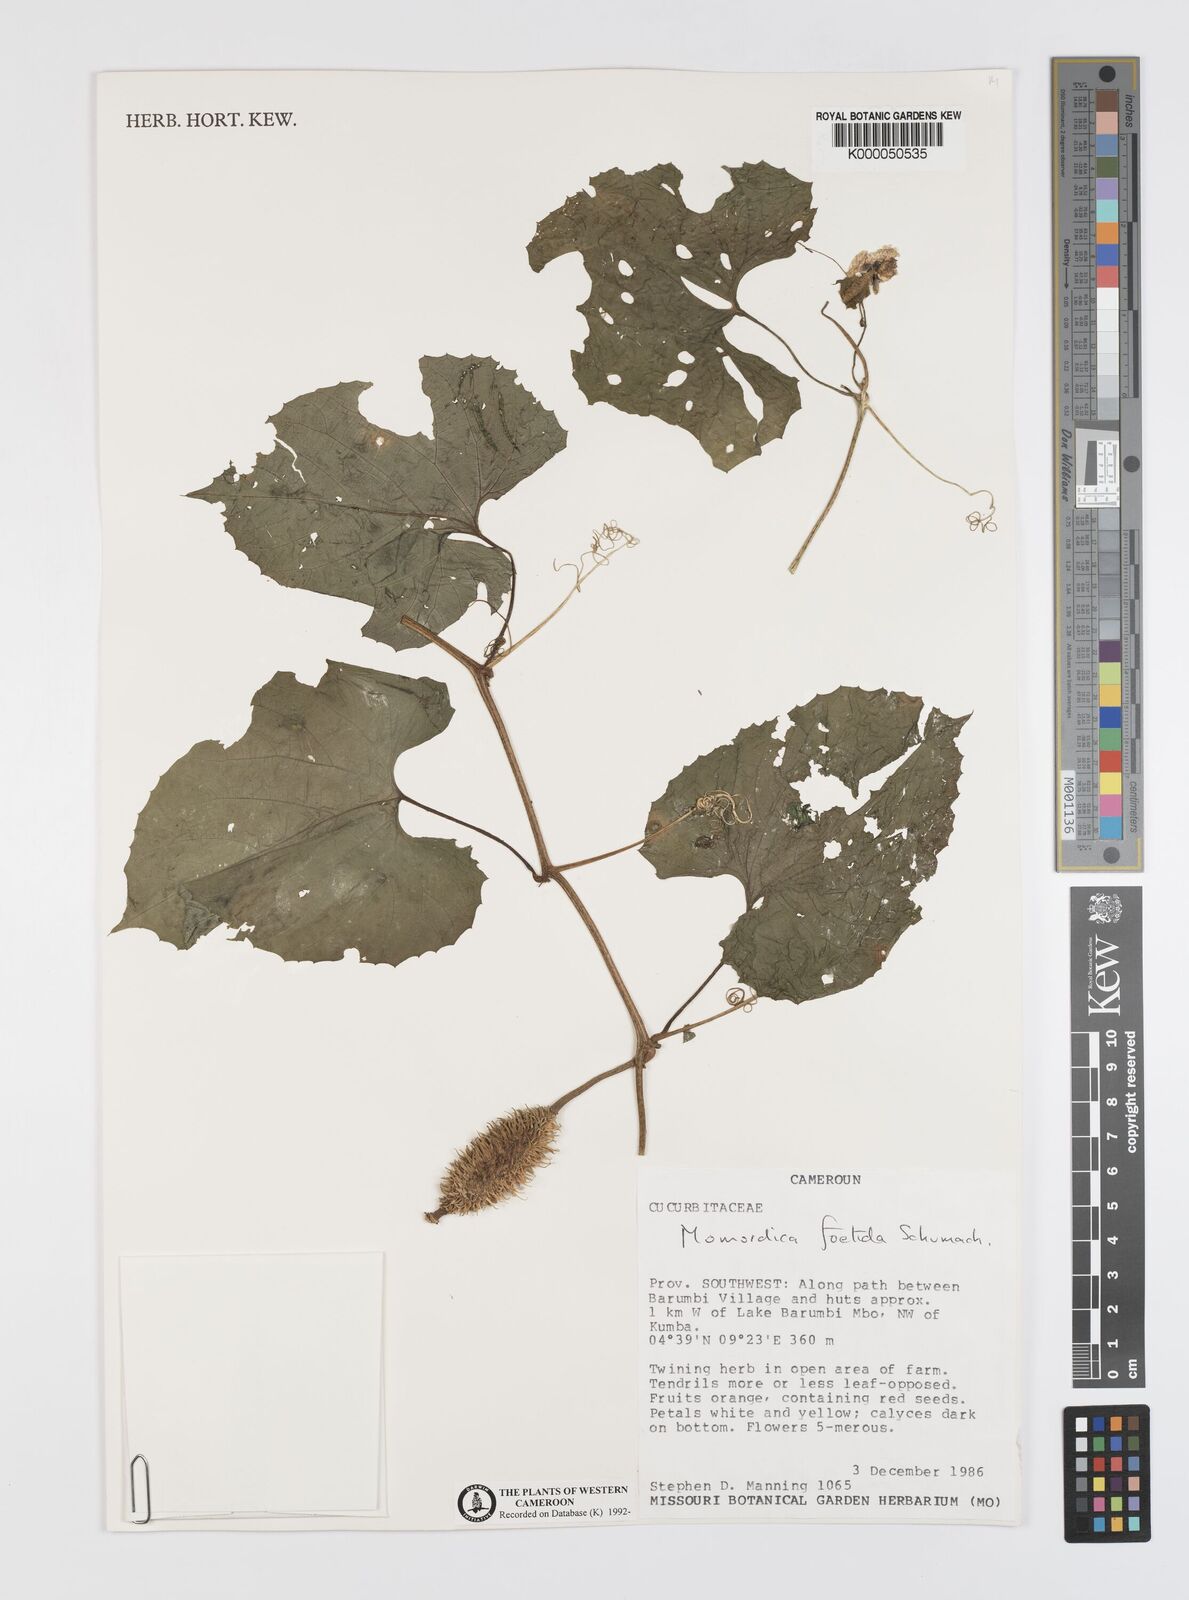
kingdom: Plantae
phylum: Tracheophyta
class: Magnoliopsida
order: Cucurbitales
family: Cucurbitaceae
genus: Momordica
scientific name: Momordica foetida
